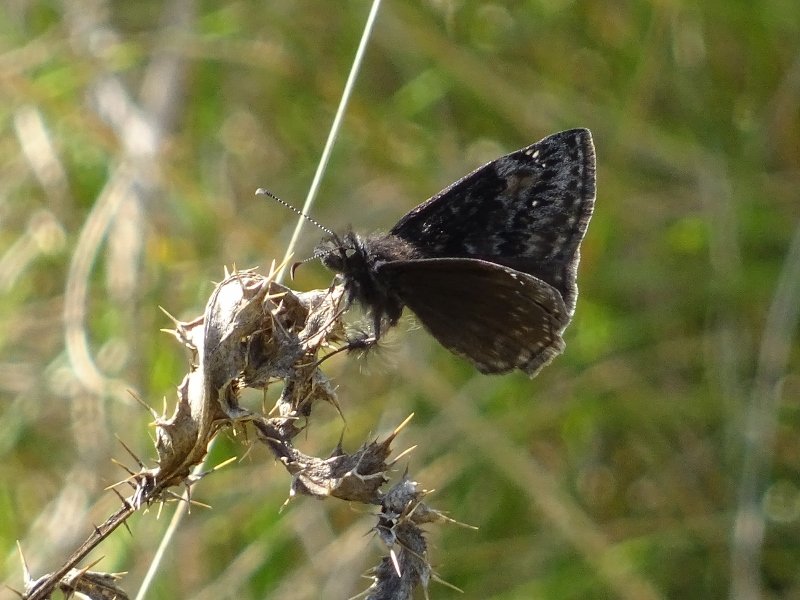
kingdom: Animalia
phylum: Arthropoda
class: Insecta
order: Lepidoptera
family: Hesperiidae
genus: Gesta
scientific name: Gesta
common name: Wild Indigo Duskywing
